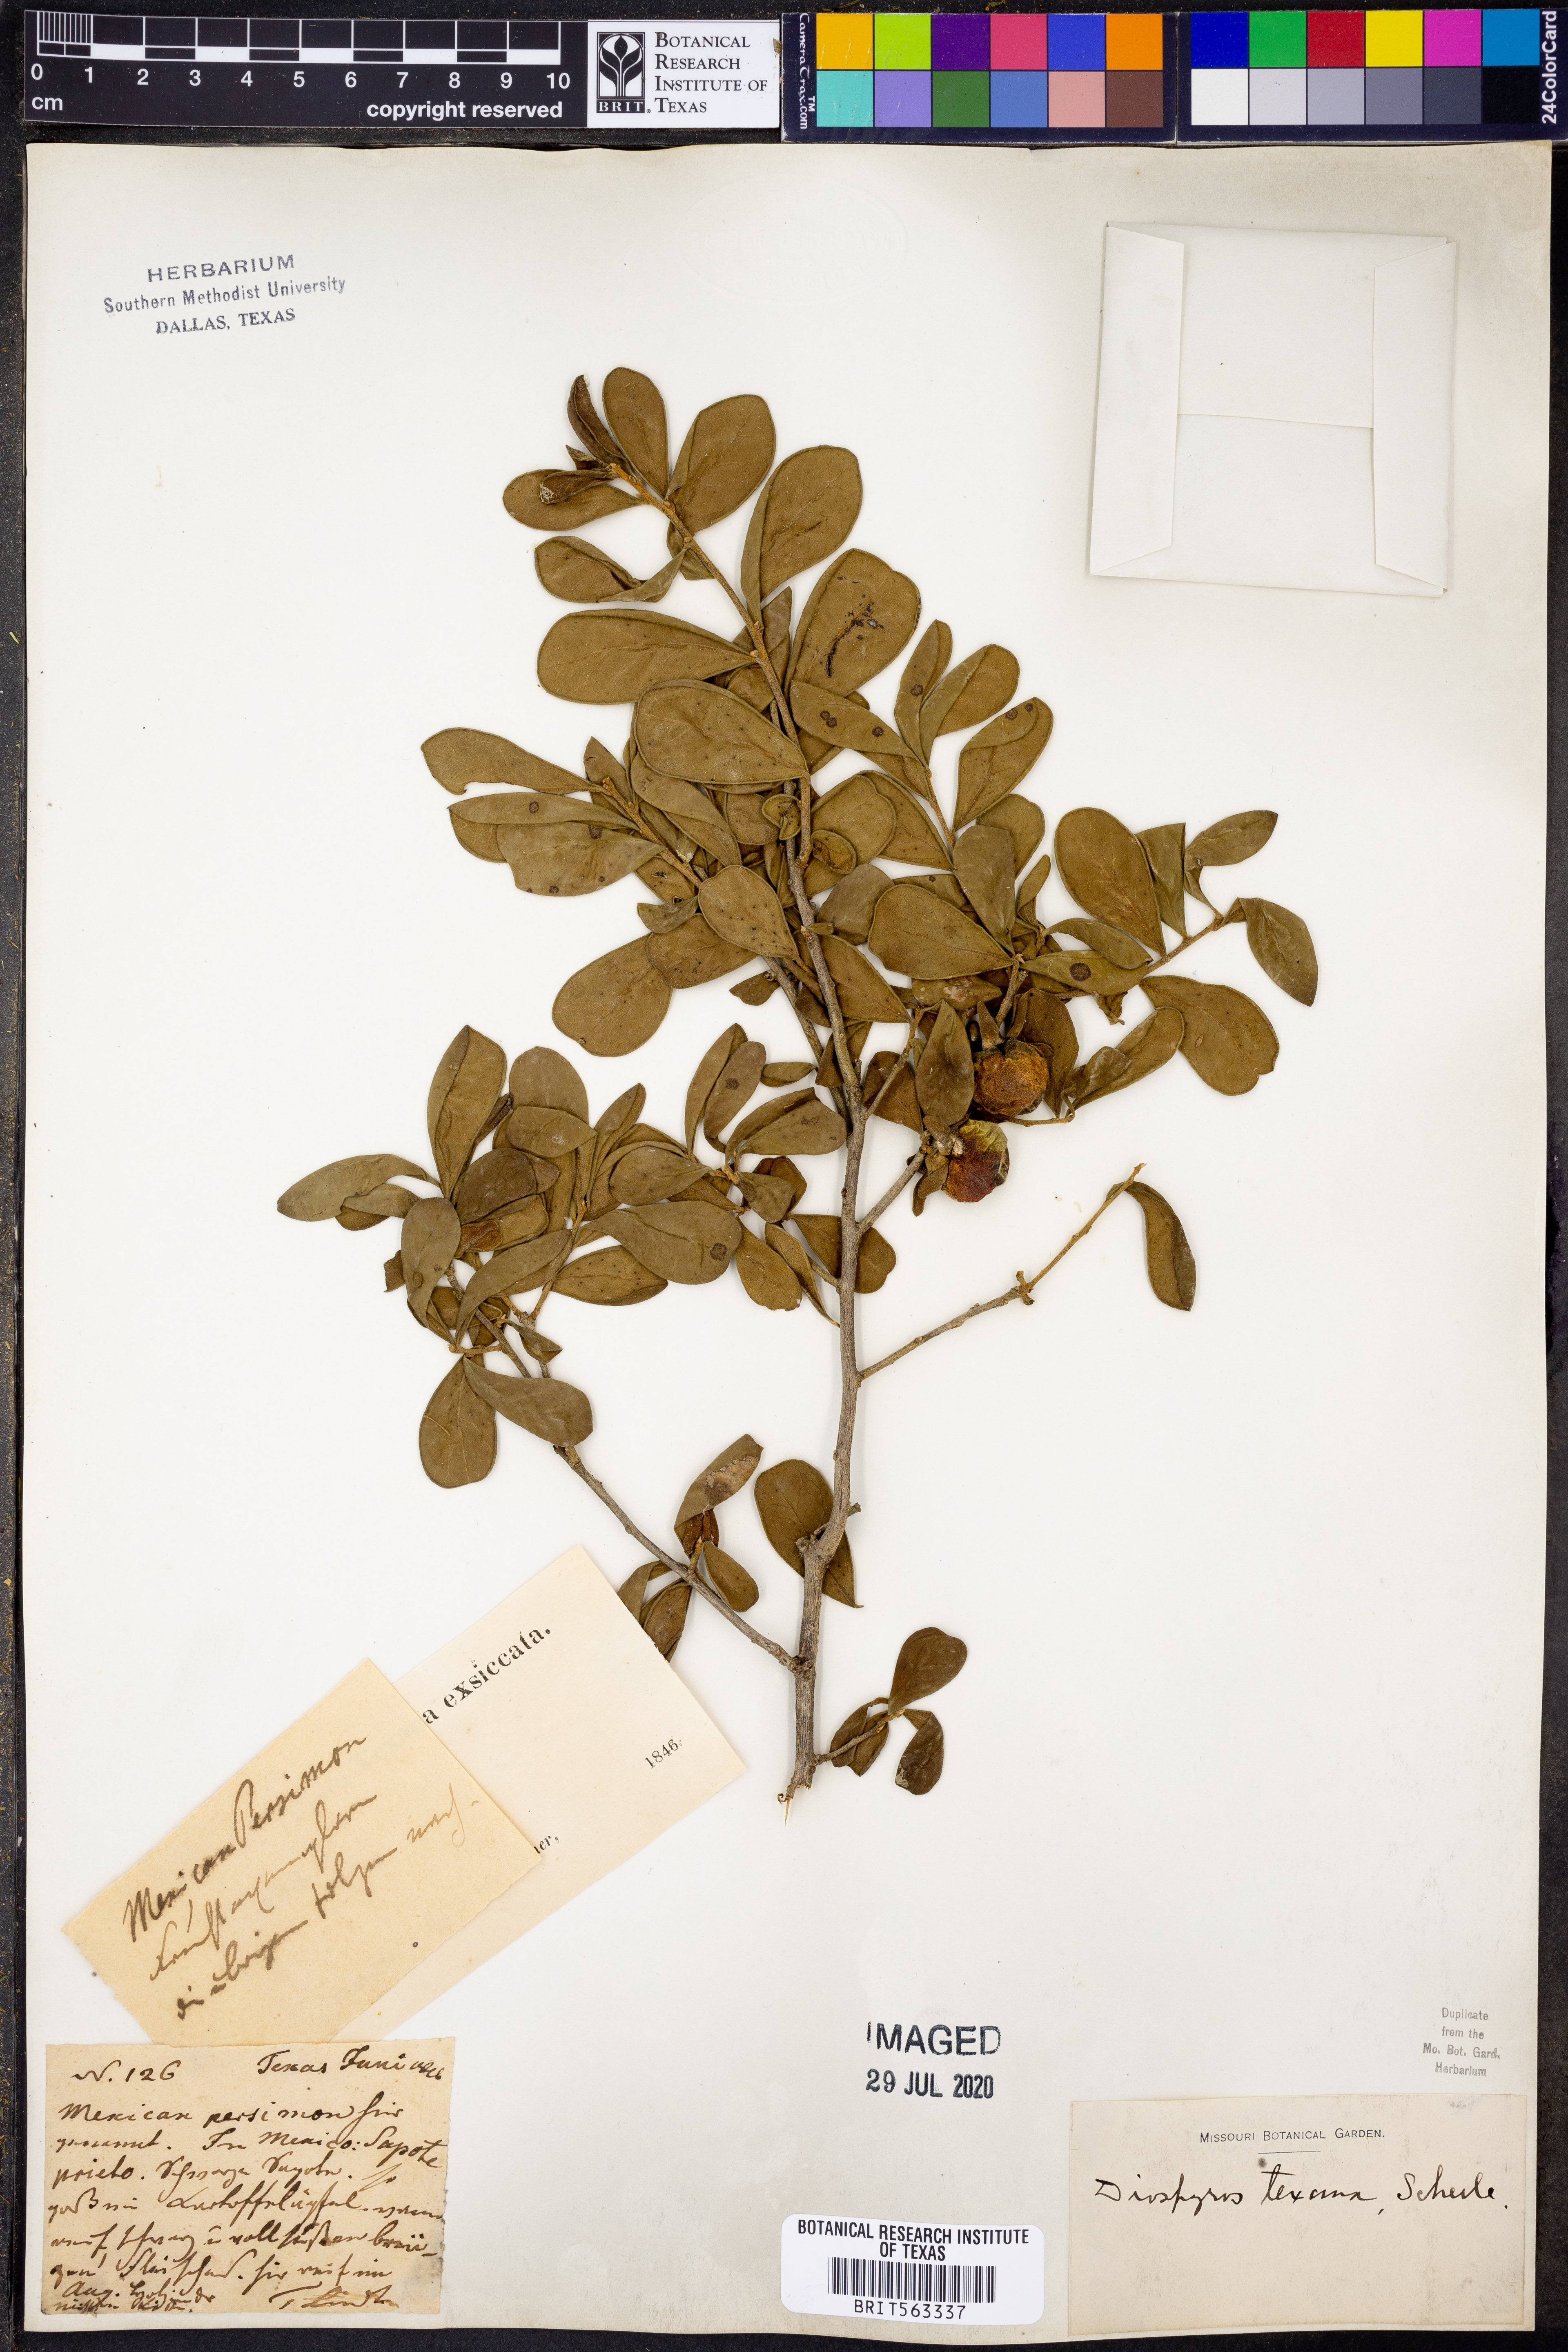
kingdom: Plantae
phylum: Tracheophyta
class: Magnoliopsida
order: Ericales
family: Ebenaceae
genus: Diospyros
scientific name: Diospyros texana
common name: Texas persimmon
